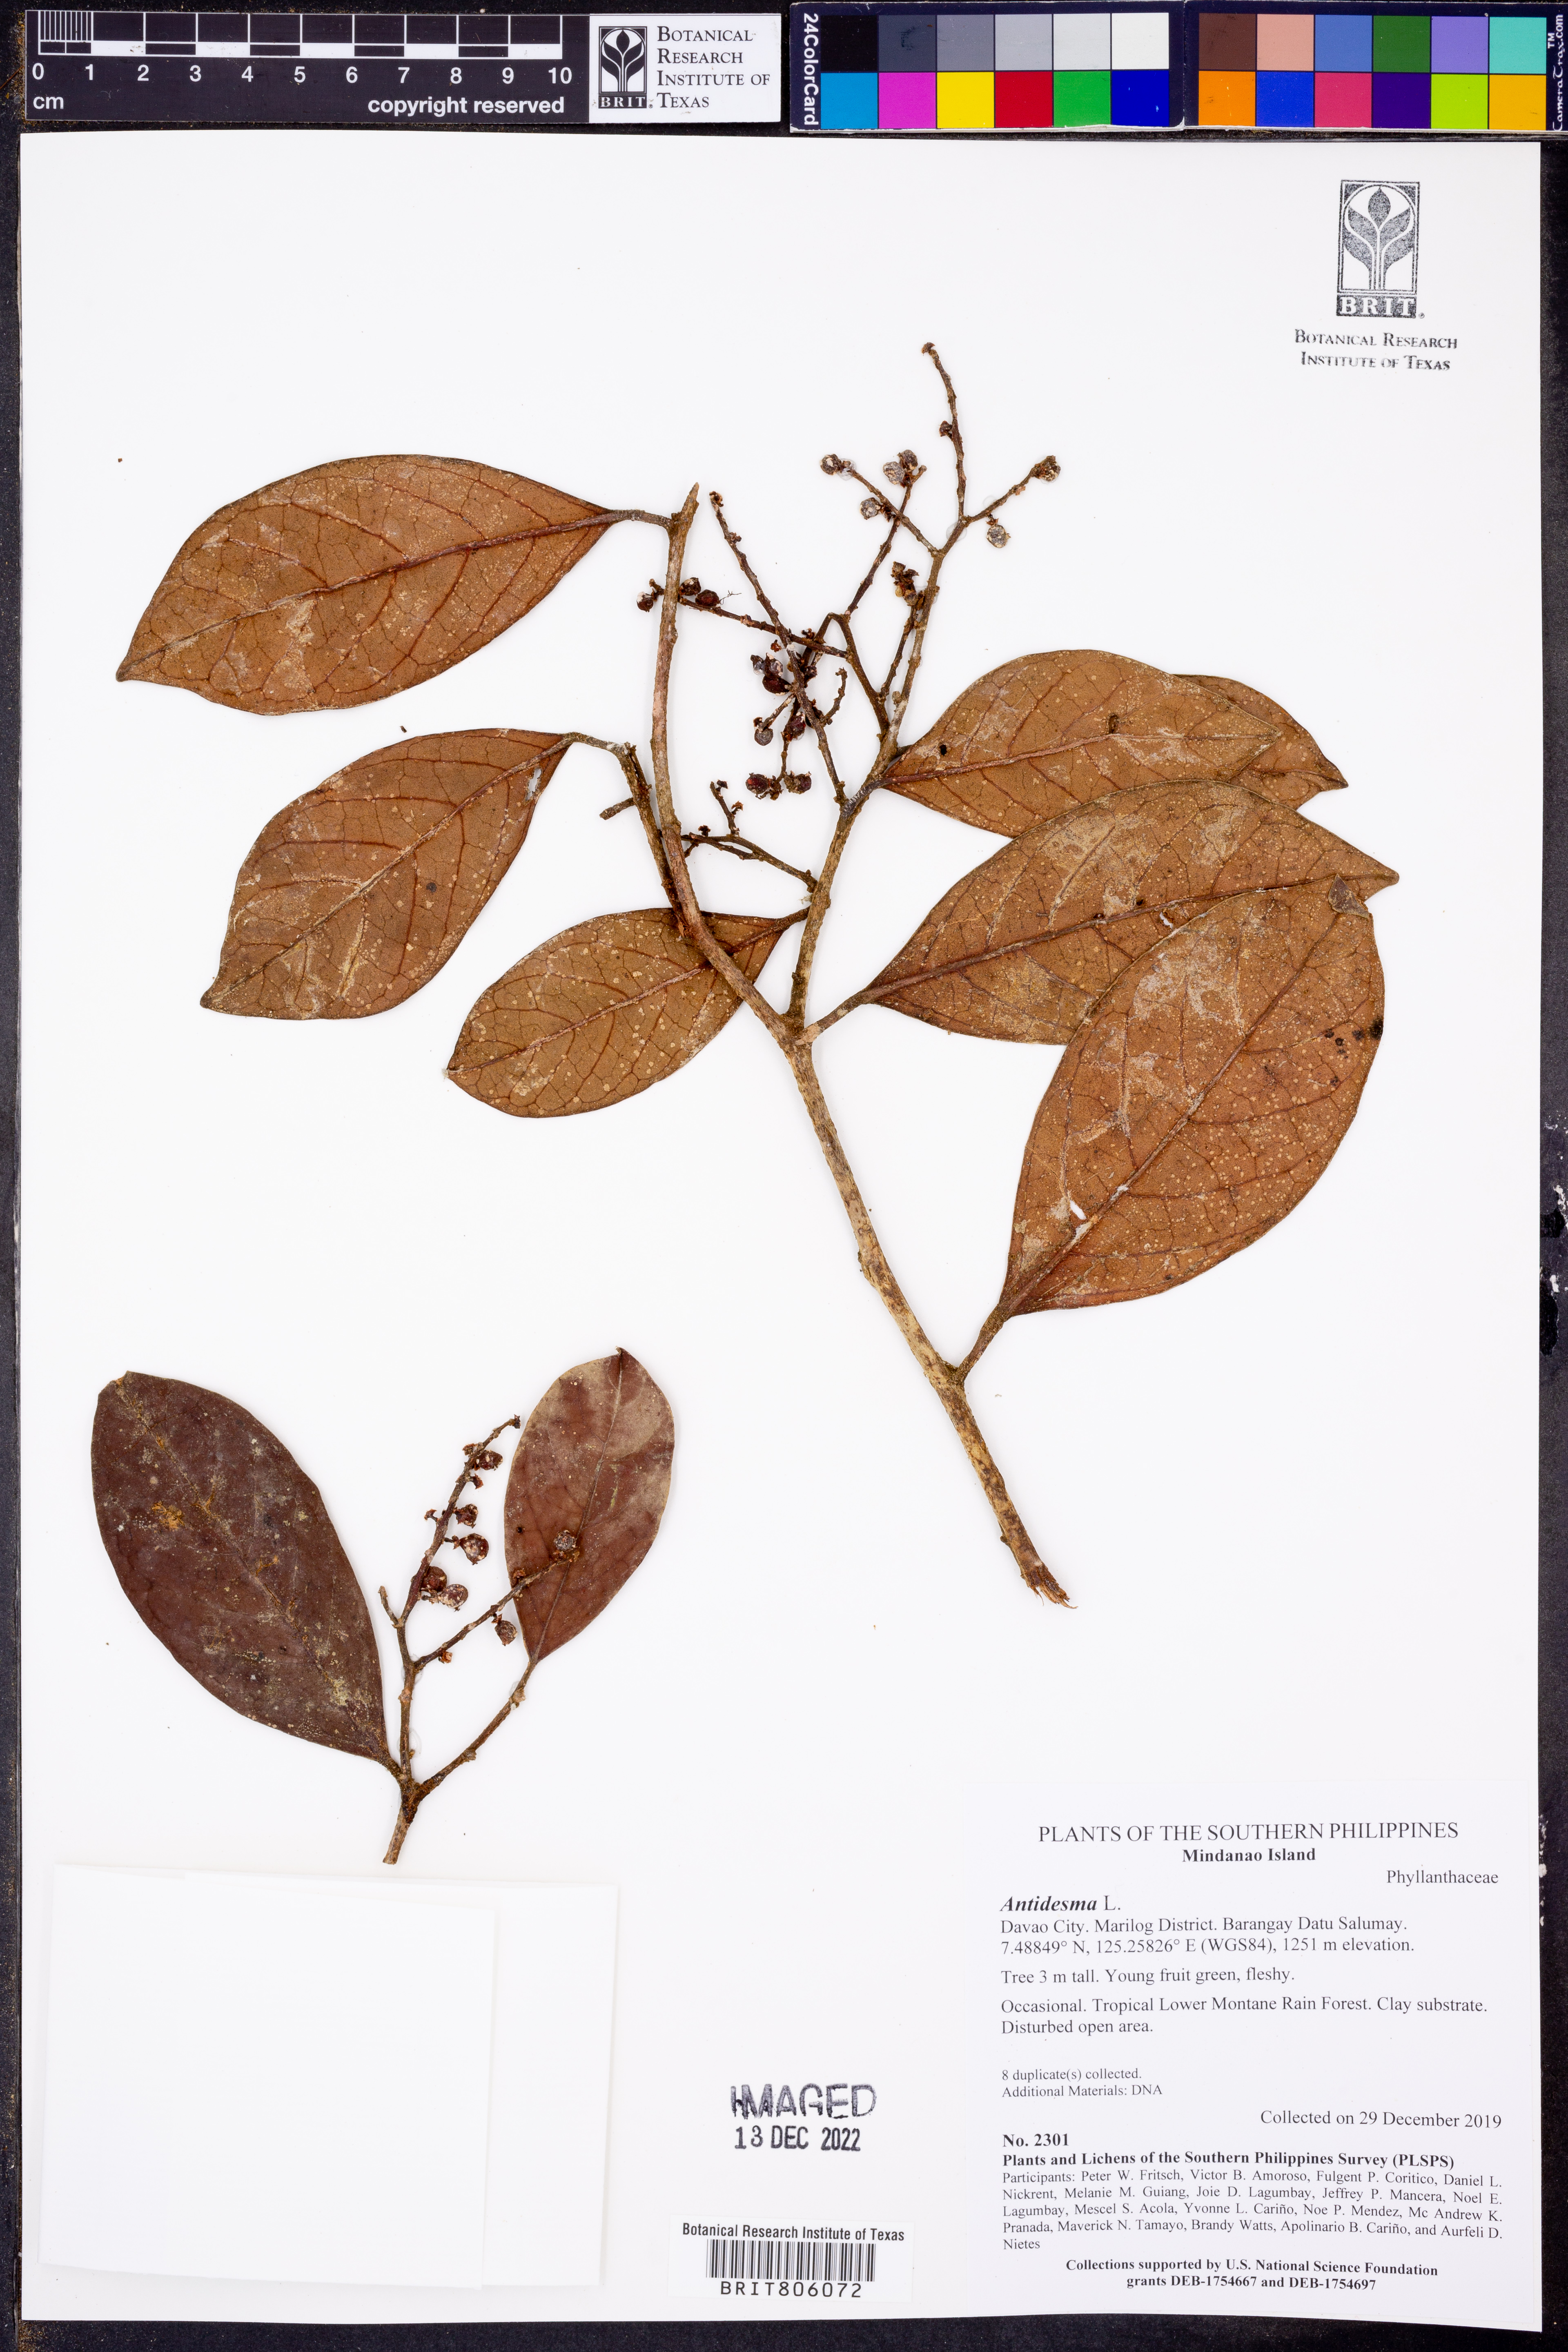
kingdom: Plantae
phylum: Tracheophyta
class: Magnoliopsida
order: Malpighiales
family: Phyllanthaceae
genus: Antidesma
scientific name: Antidesma
